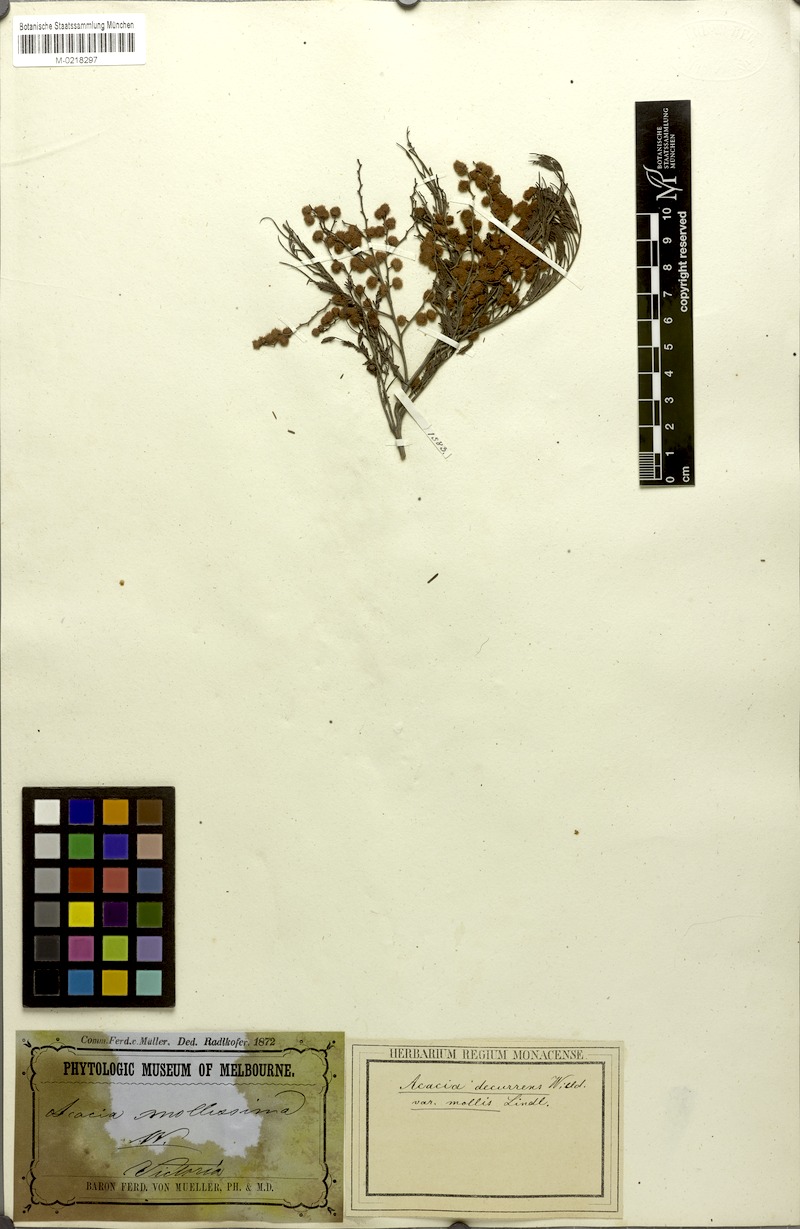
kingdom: Plantae
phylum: Tracheophyta
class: Magnoliopsida
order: Fabales
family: Fabaceae
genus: Acacia
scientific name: Acacia mearnsii
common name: Black wattle
